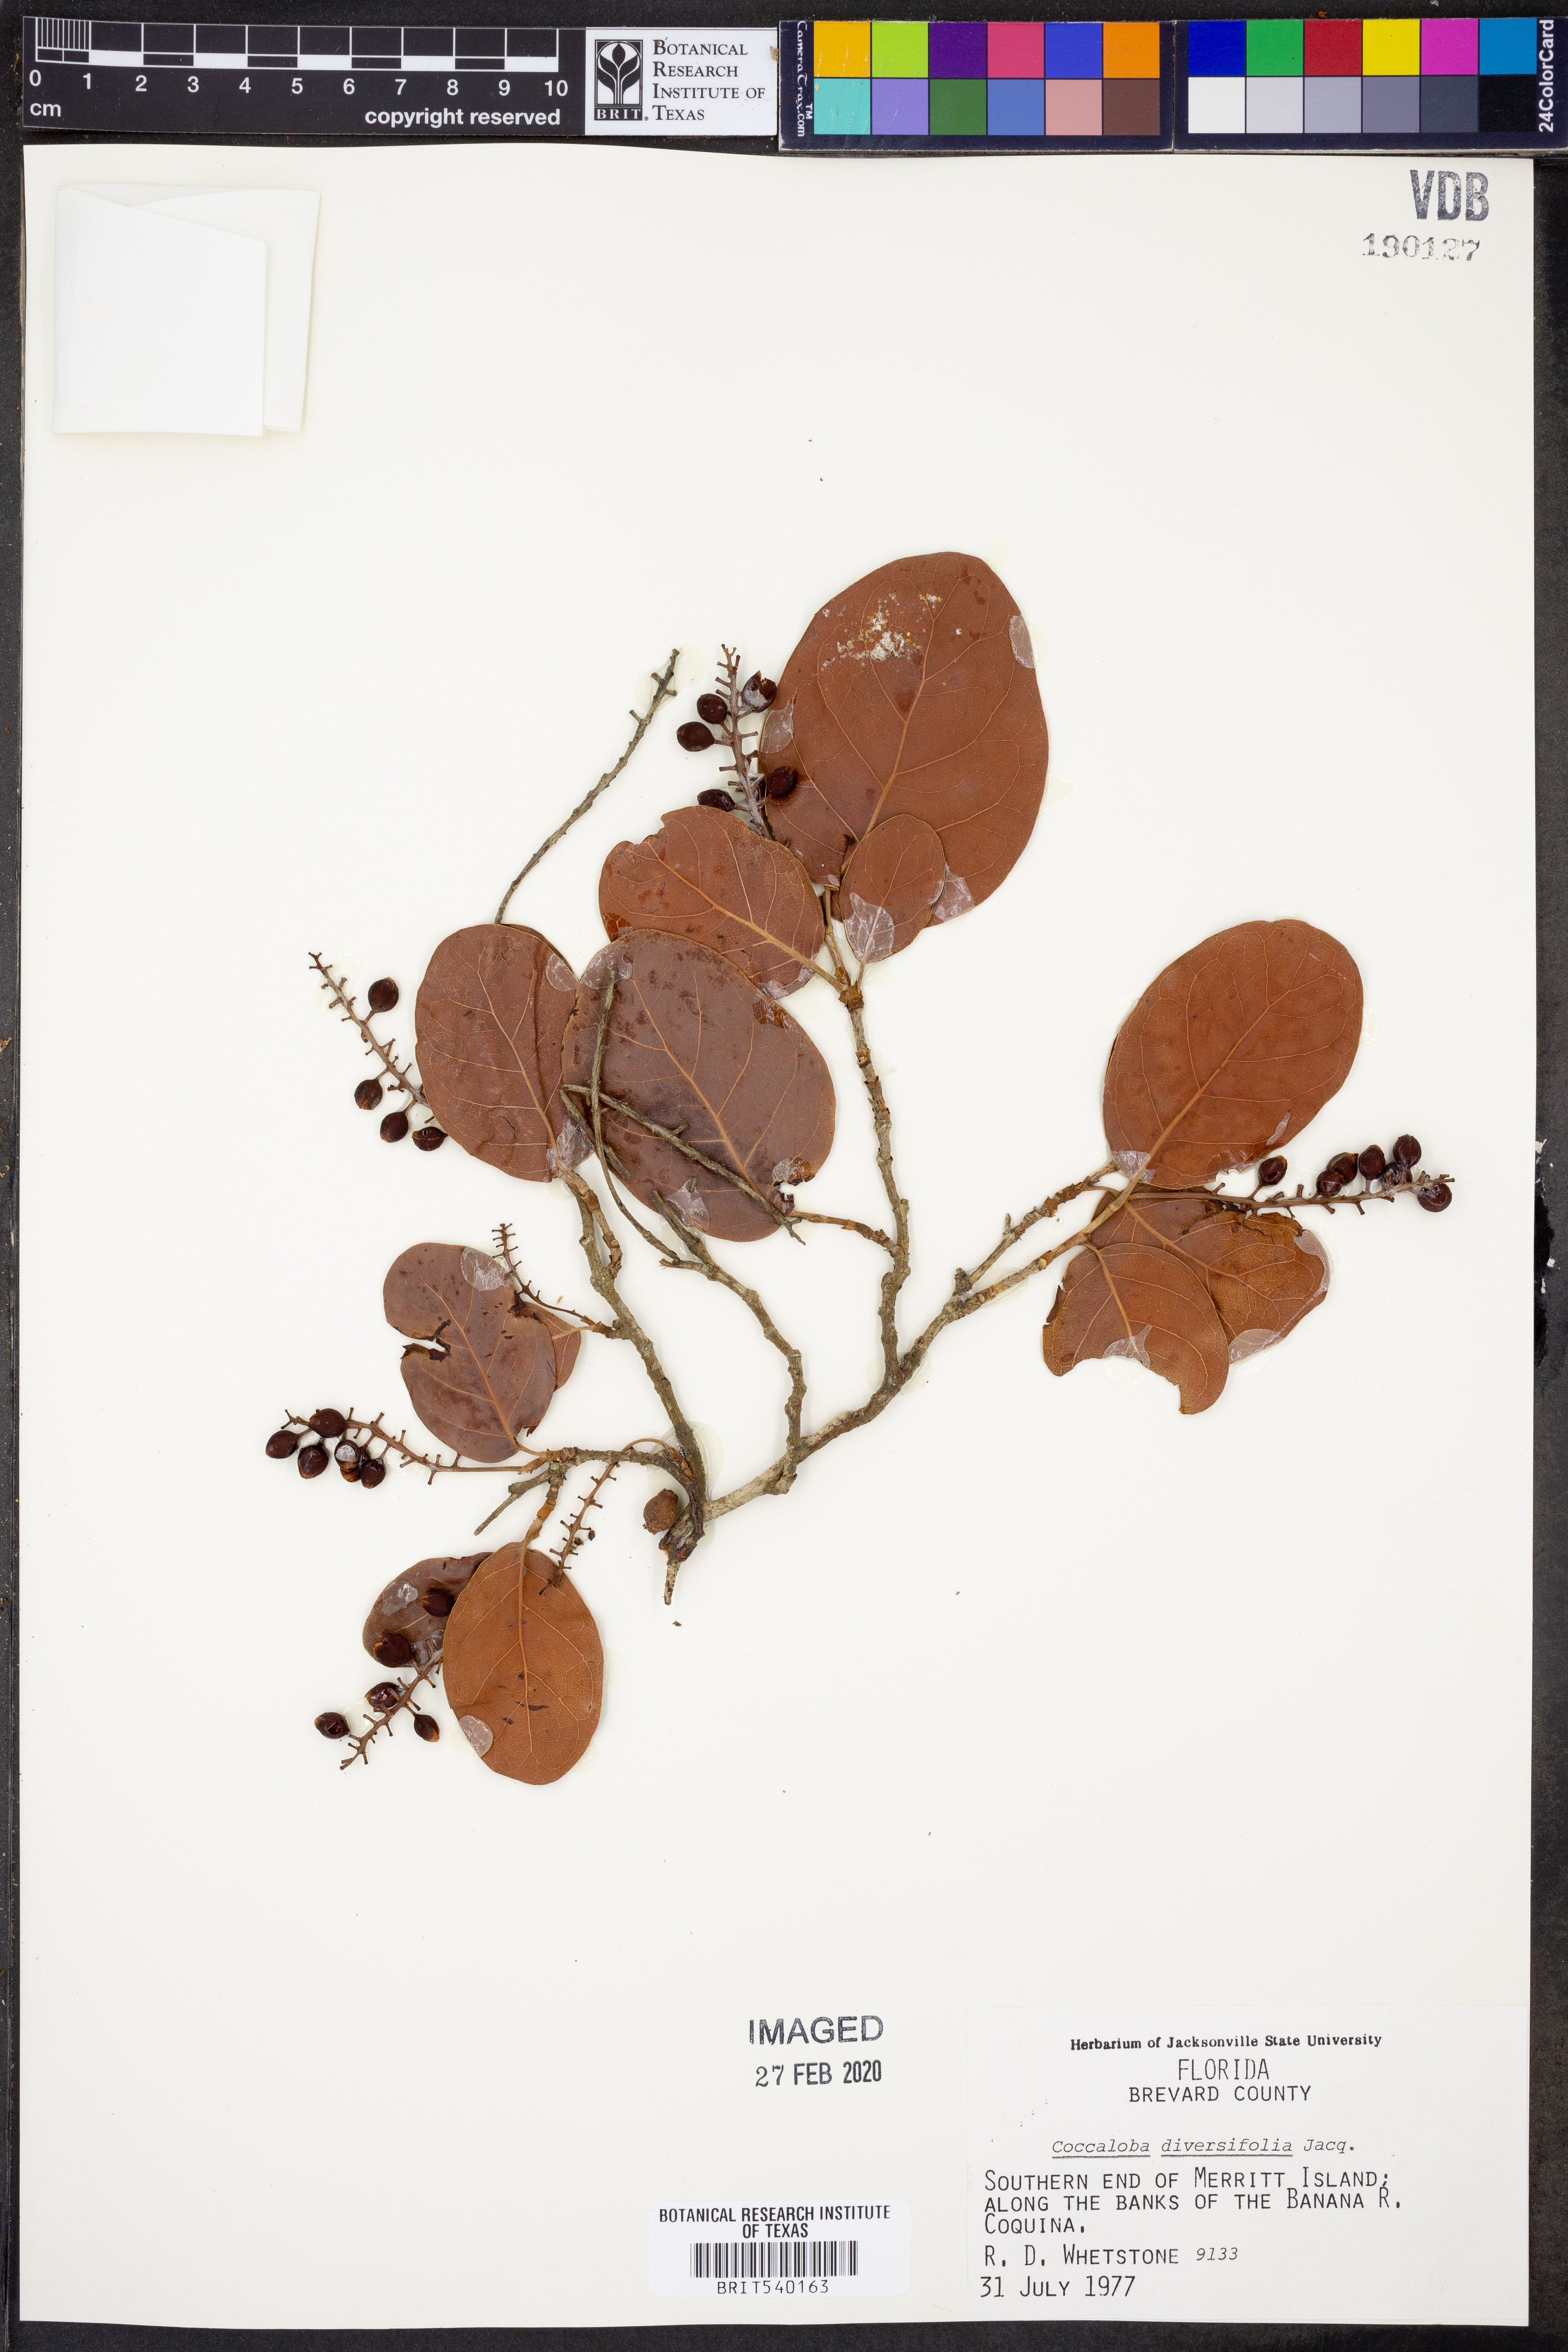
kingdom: Plantae
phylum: Tracheophyta
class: Magnoliopsida
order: Caryophyllales
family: Polygonaceae
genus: Coccoloba
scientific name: Coccoloba diversifolia
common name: Pigeon-plum
